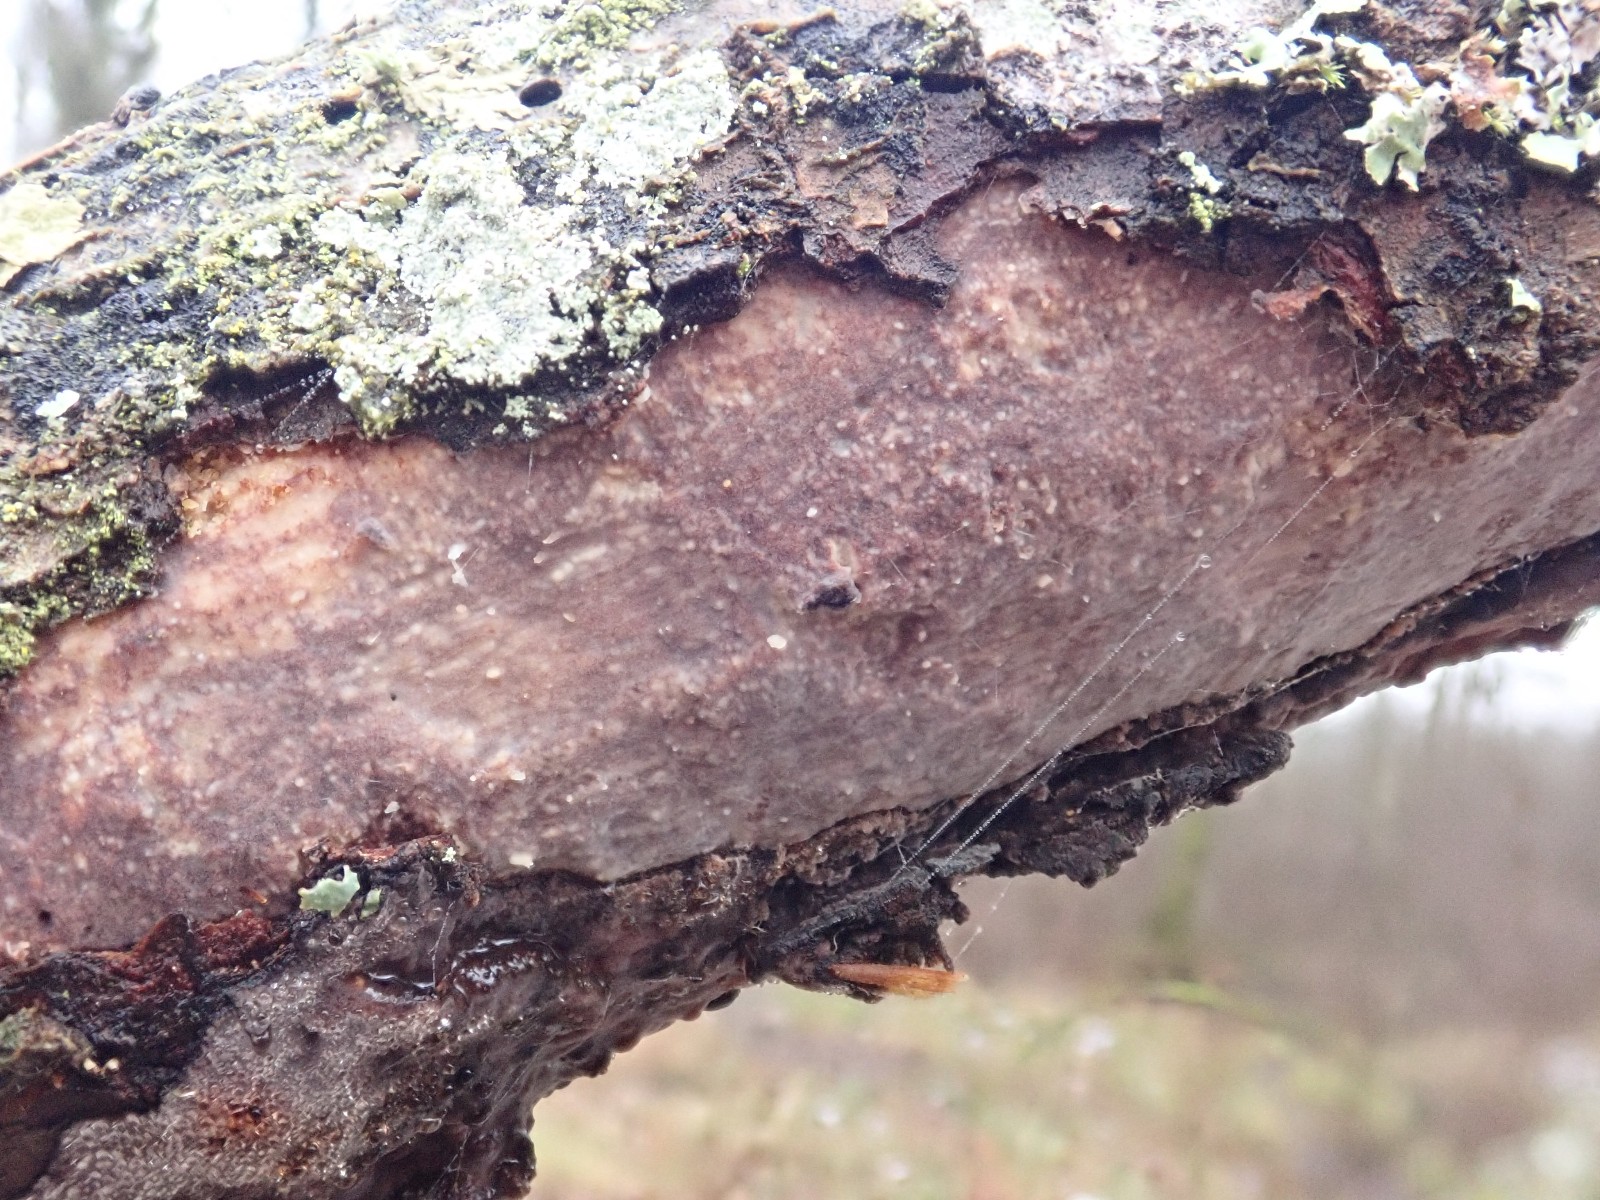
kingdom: Fungi
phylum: Basidiomycota
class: Agaricomycetes
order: Corticiales
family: Vuilleminiaceae
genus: Vuilleminia
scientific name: Vuilleminia comedens
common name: almindelig barksprænger
